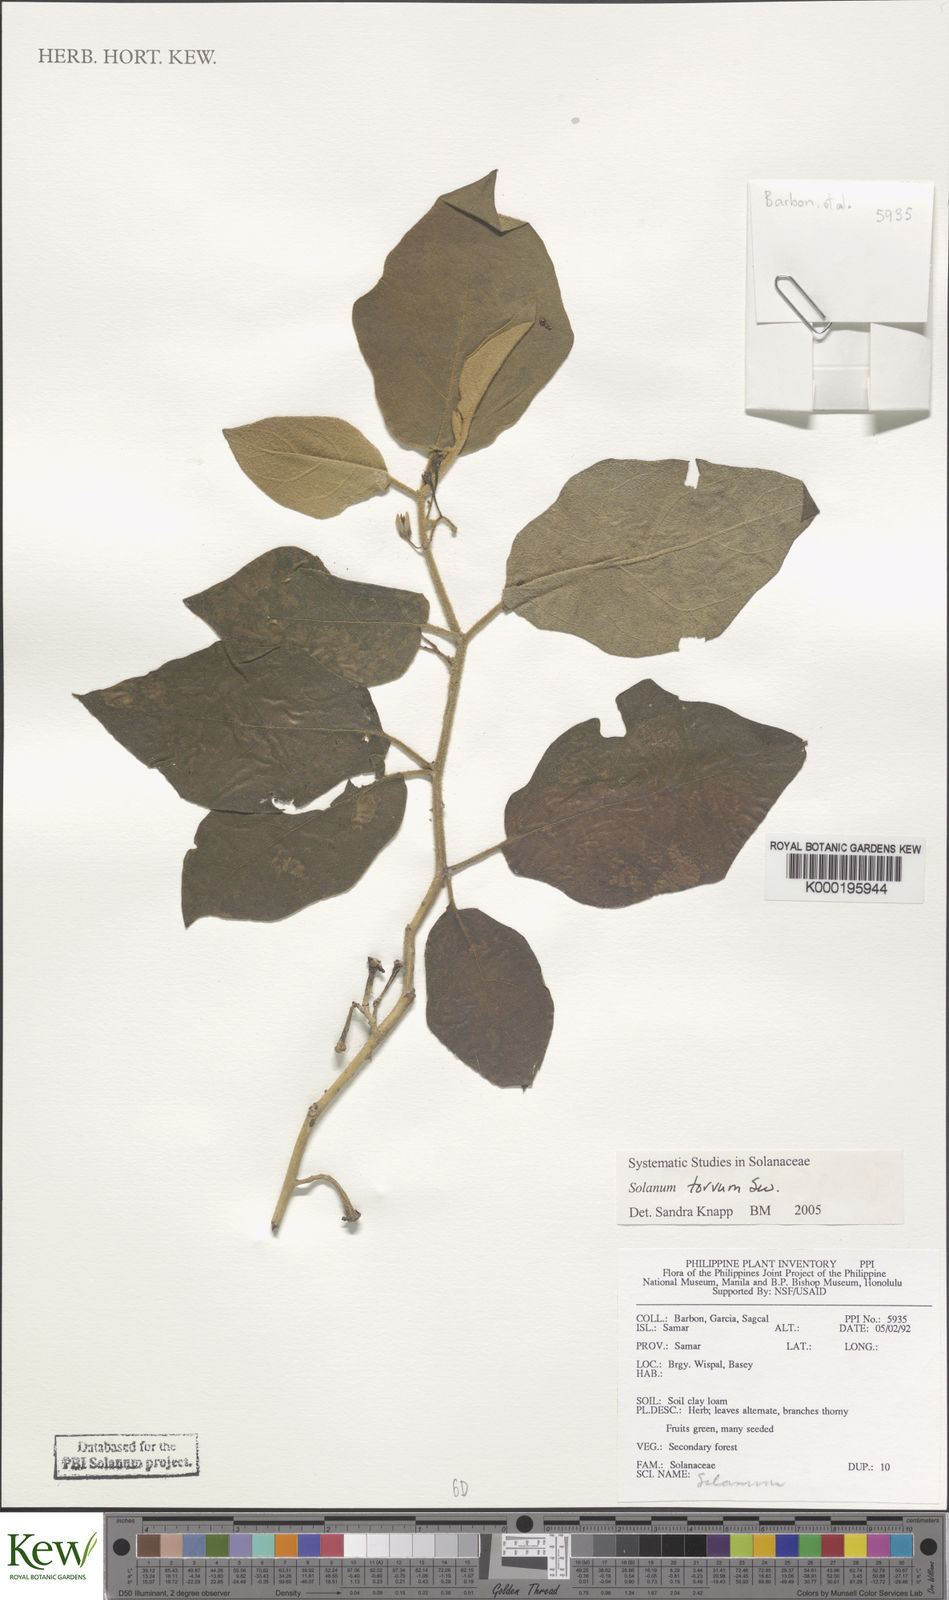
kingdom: Plantae
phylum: Tracheophyta
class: Magnoliopsida
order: Solanales
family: Solanaceae
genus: Solanum
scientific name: Solanum torvum
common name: Turkey berry
